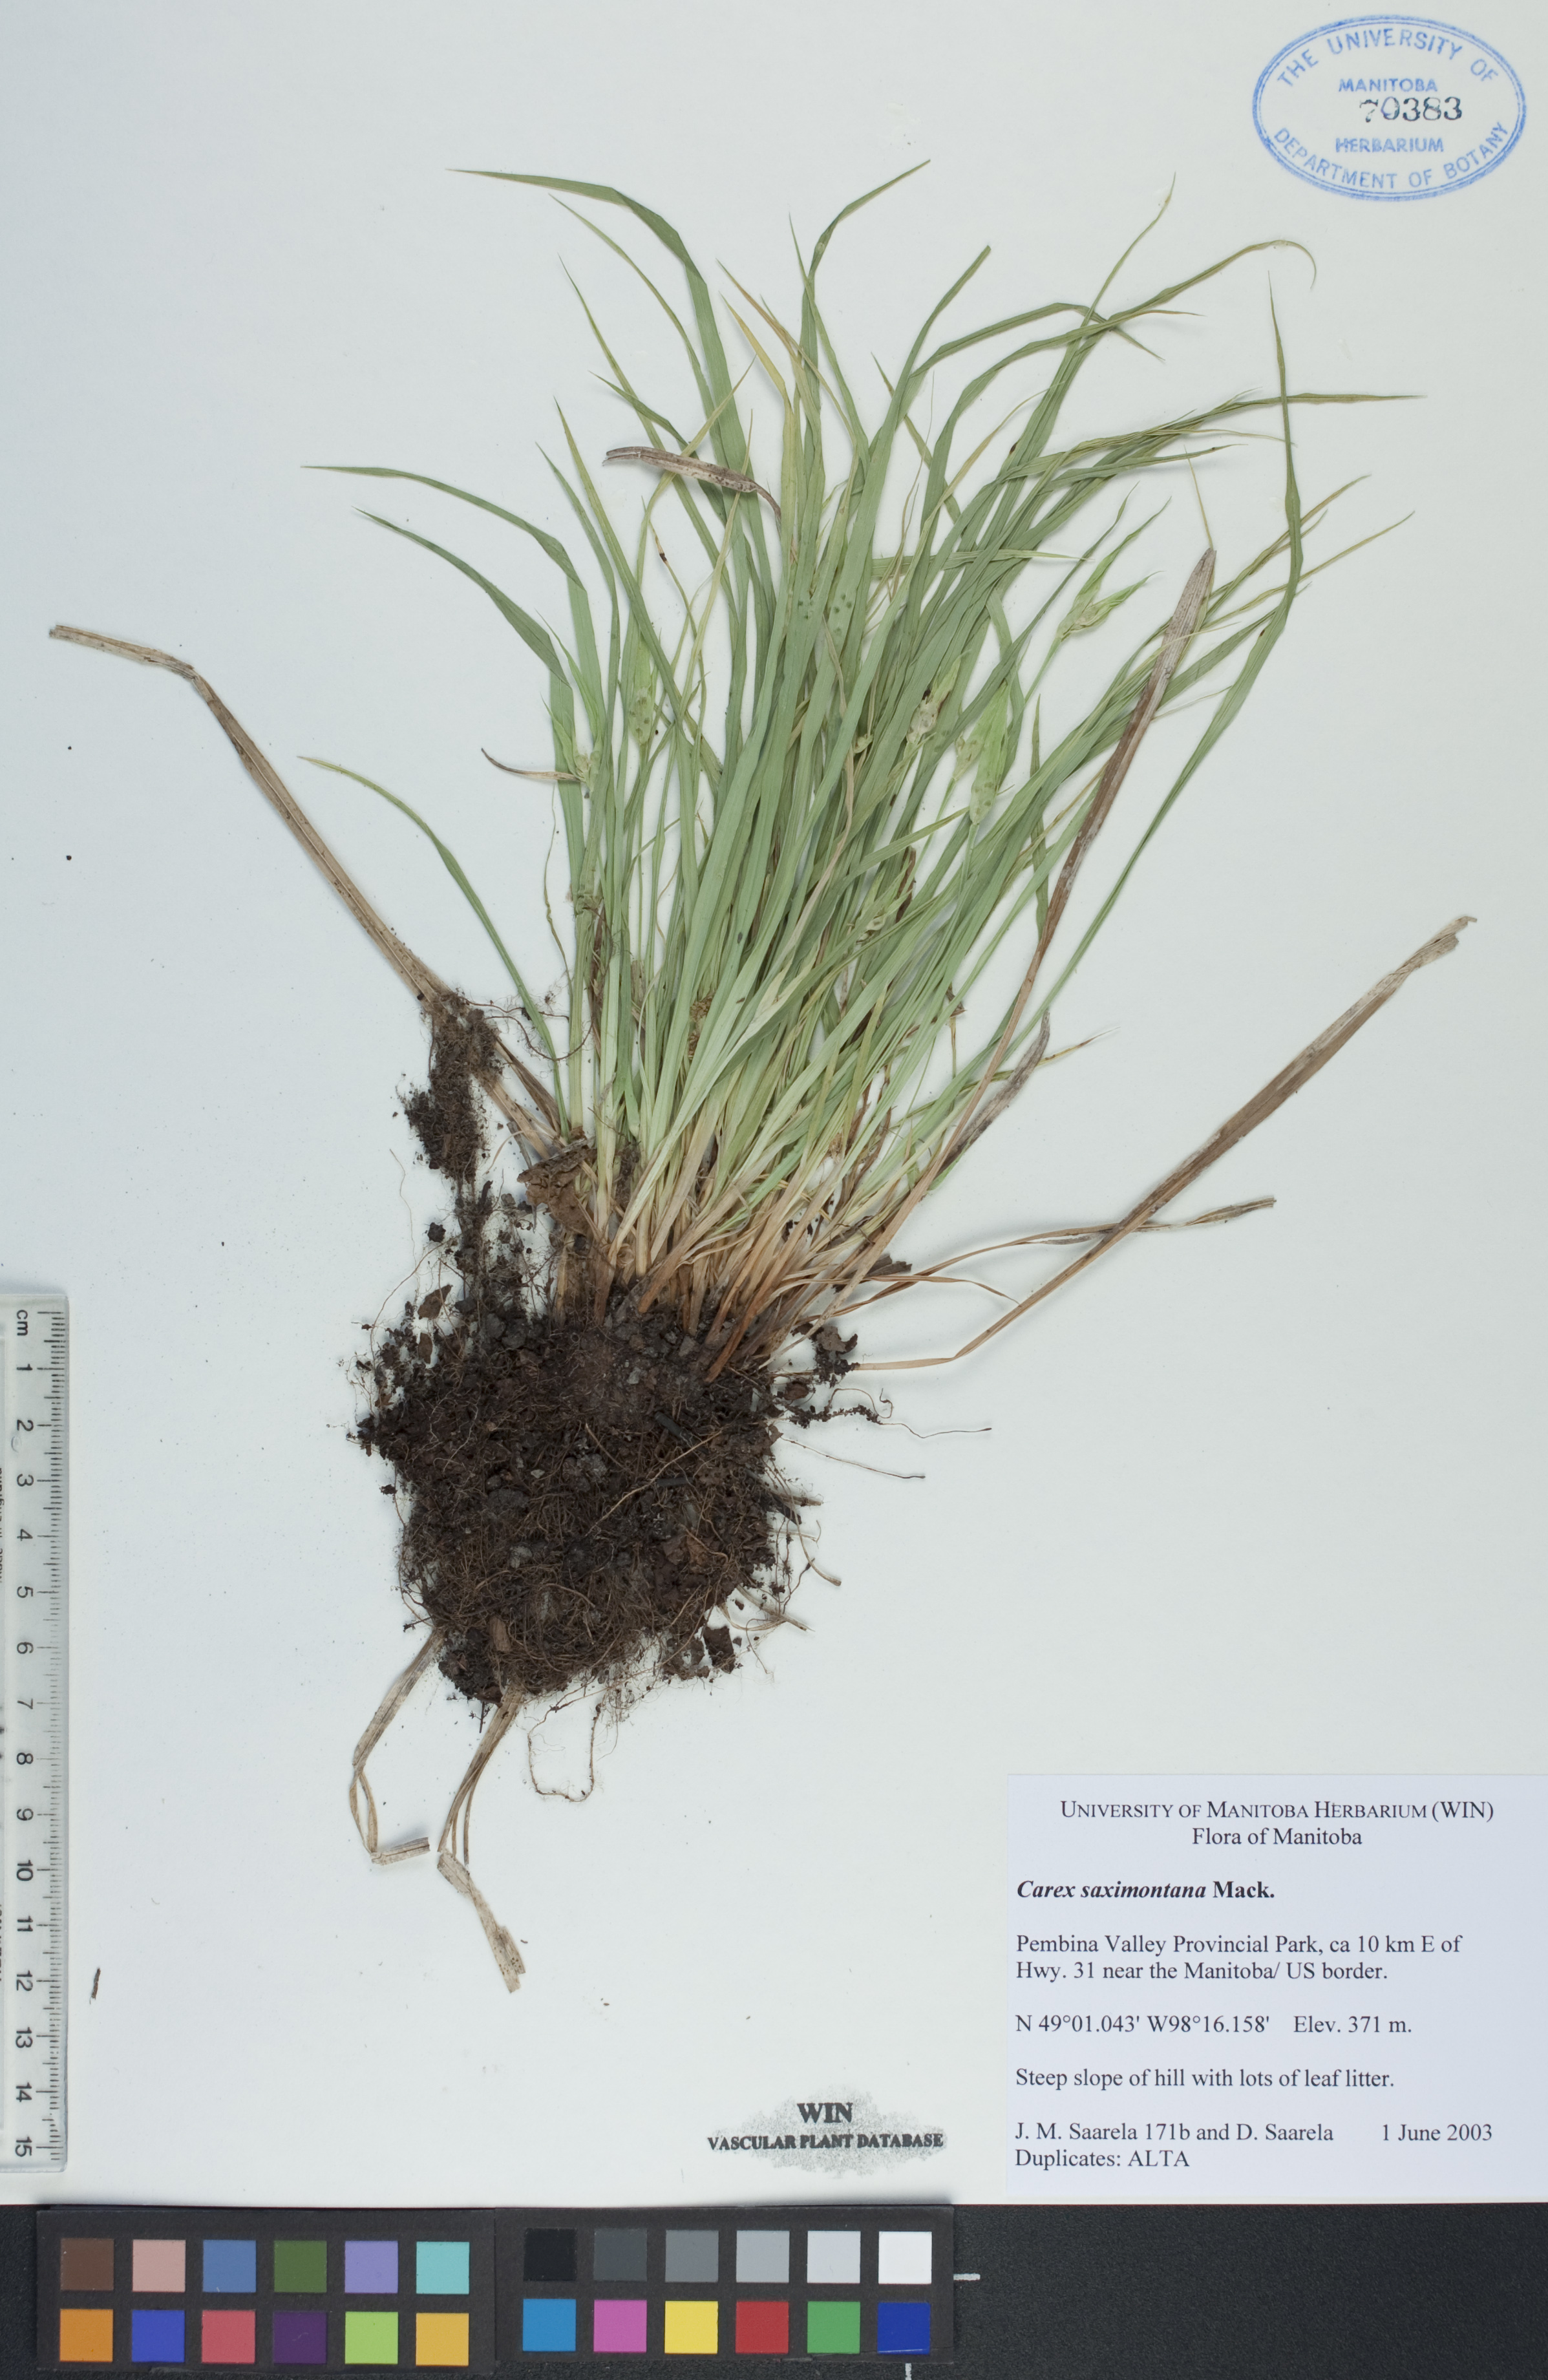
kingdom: Plantae
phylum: Tracheophyta
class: Liliopsida
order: Poales
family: Cyperaceae
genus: Carex
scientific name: Carex saximontana
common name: Rocky mountain sedge
